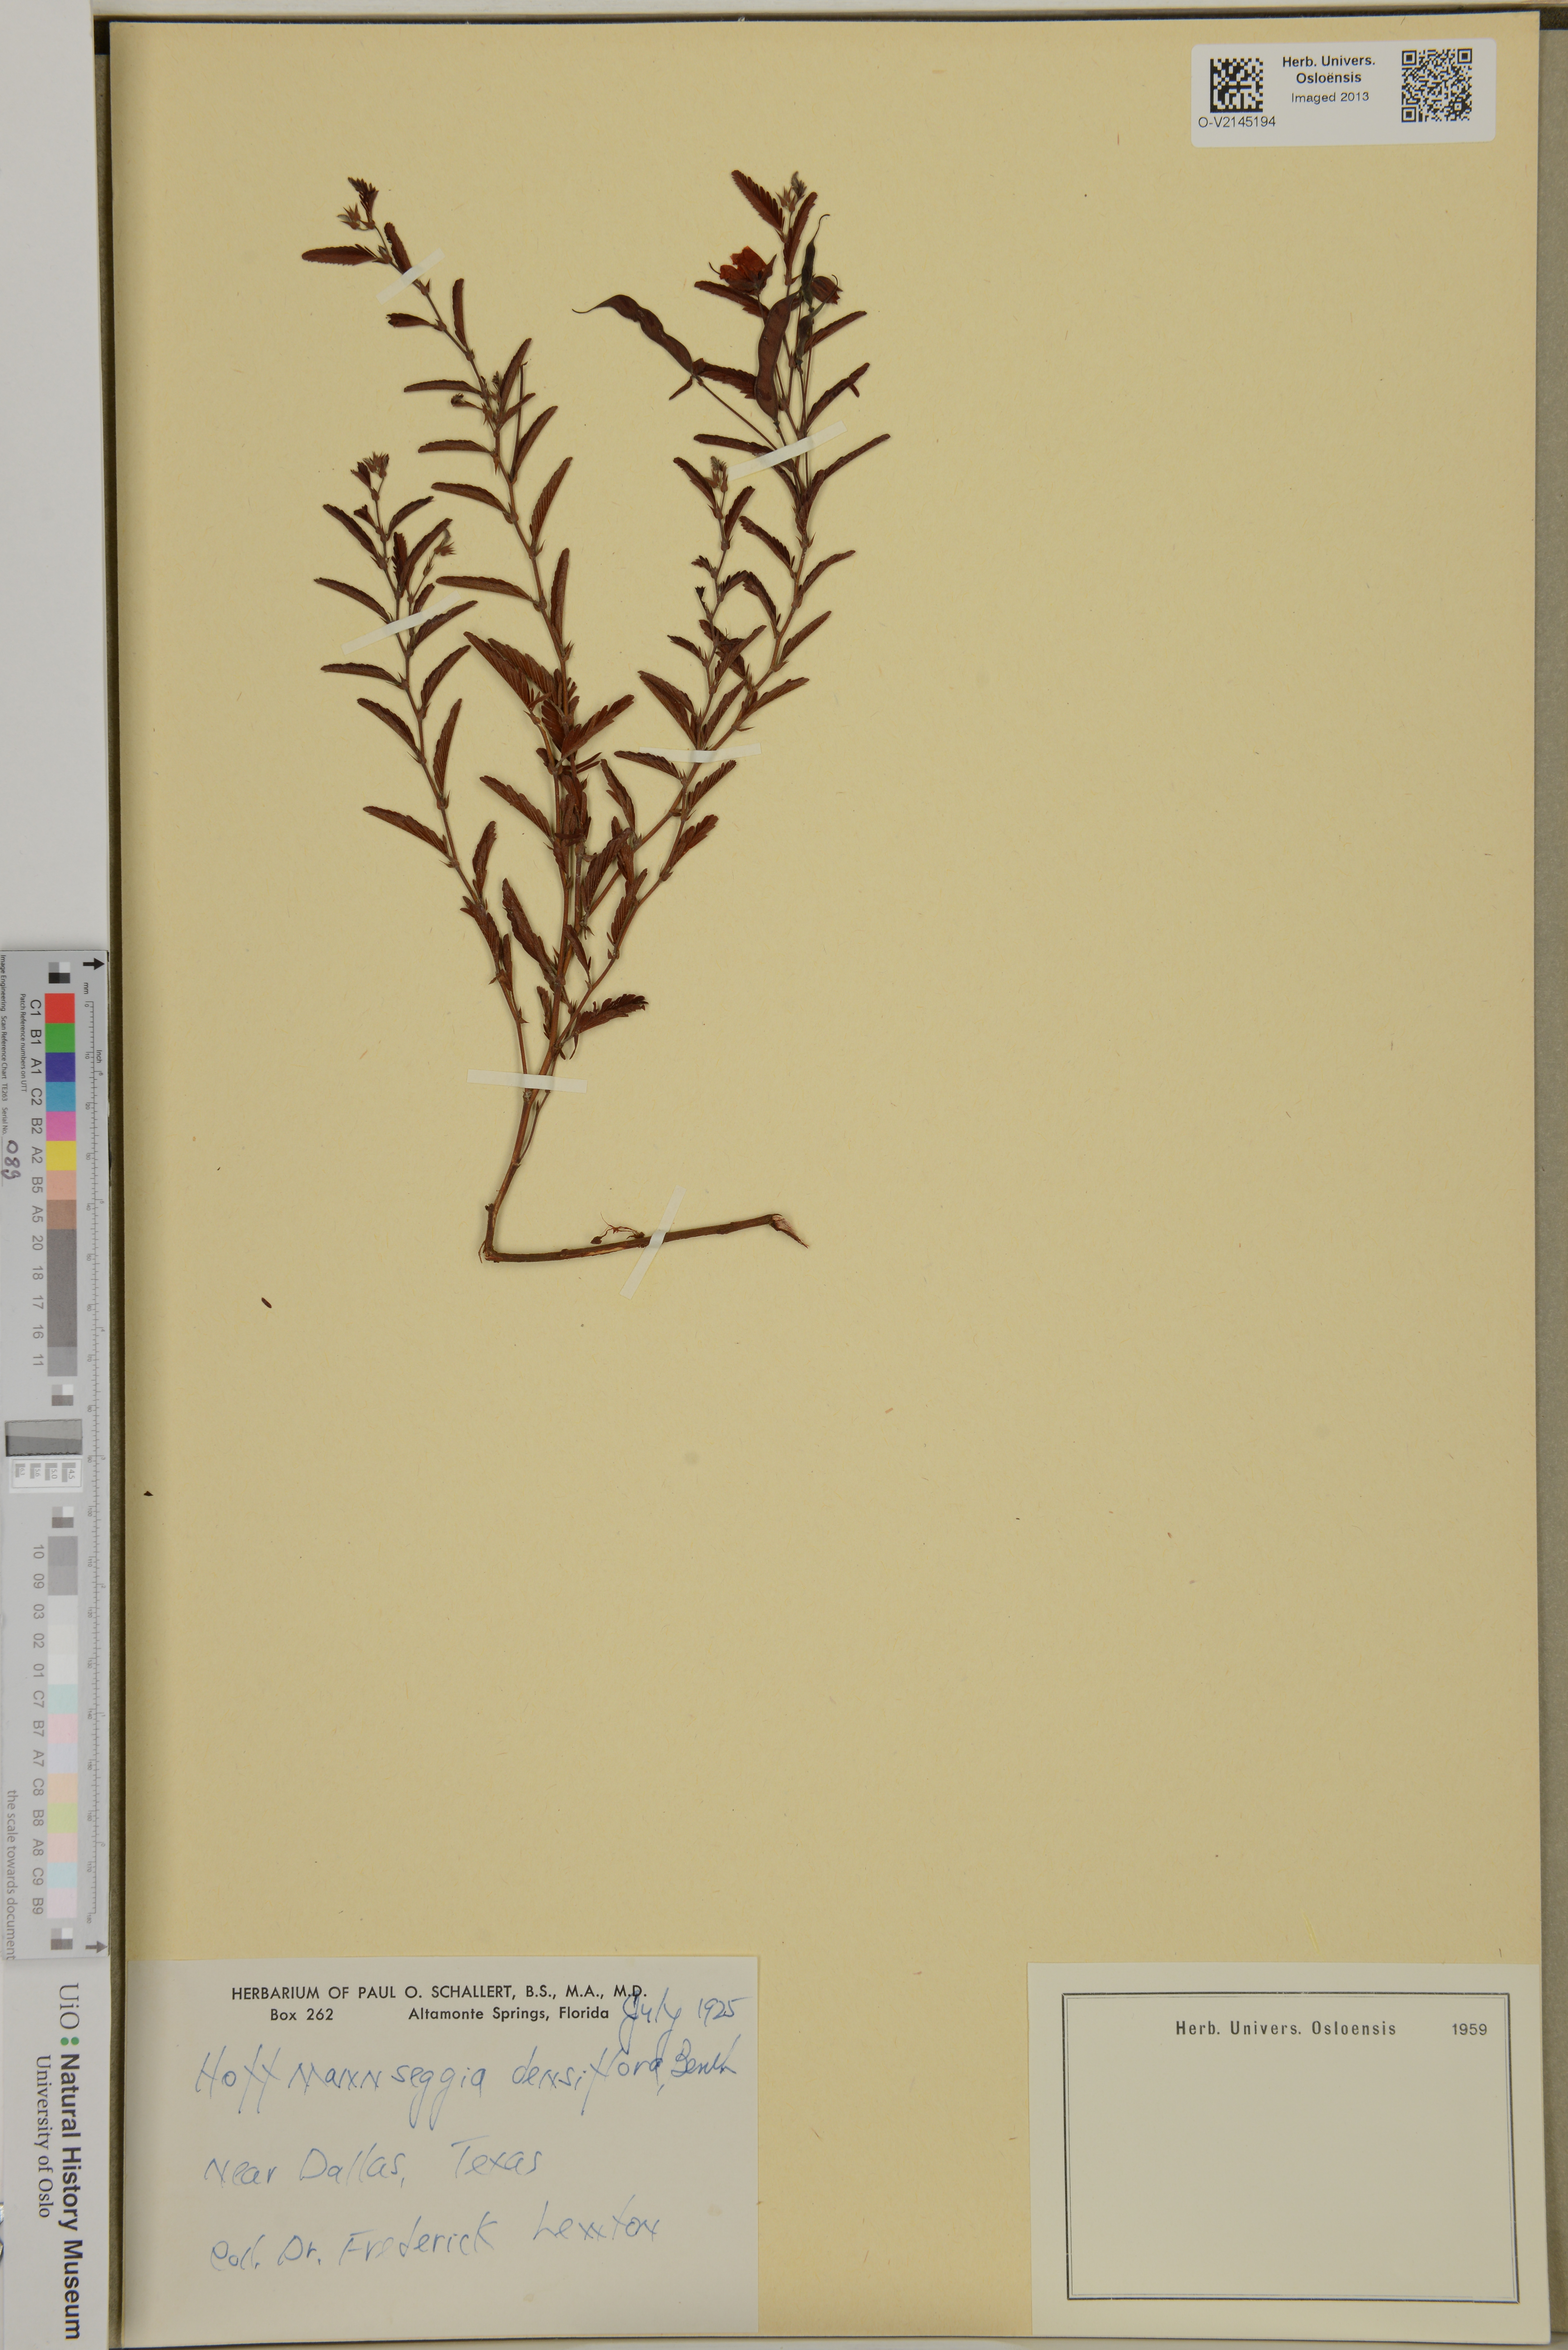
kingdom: Plantae
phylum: Tracheophyta
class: Magnoliopsida
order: Fabales
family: Fabaceae
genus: Hoffmannseggia
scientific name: Hoffmannseggia glauca
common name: Pignut
